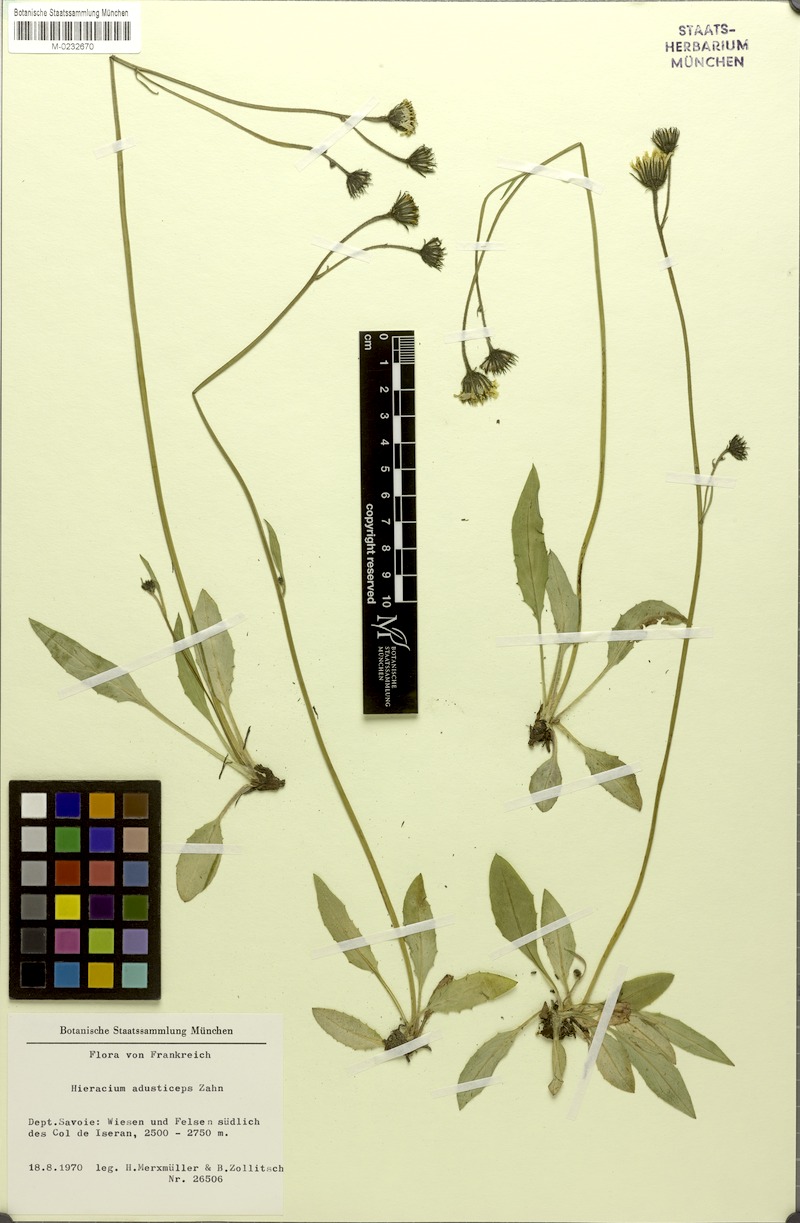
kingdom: Plantae
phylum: Tracheophyta
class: Magnoliopsida
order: Asterales
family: Asteraceae
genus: Hieracium
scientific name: Hieracium melanops
